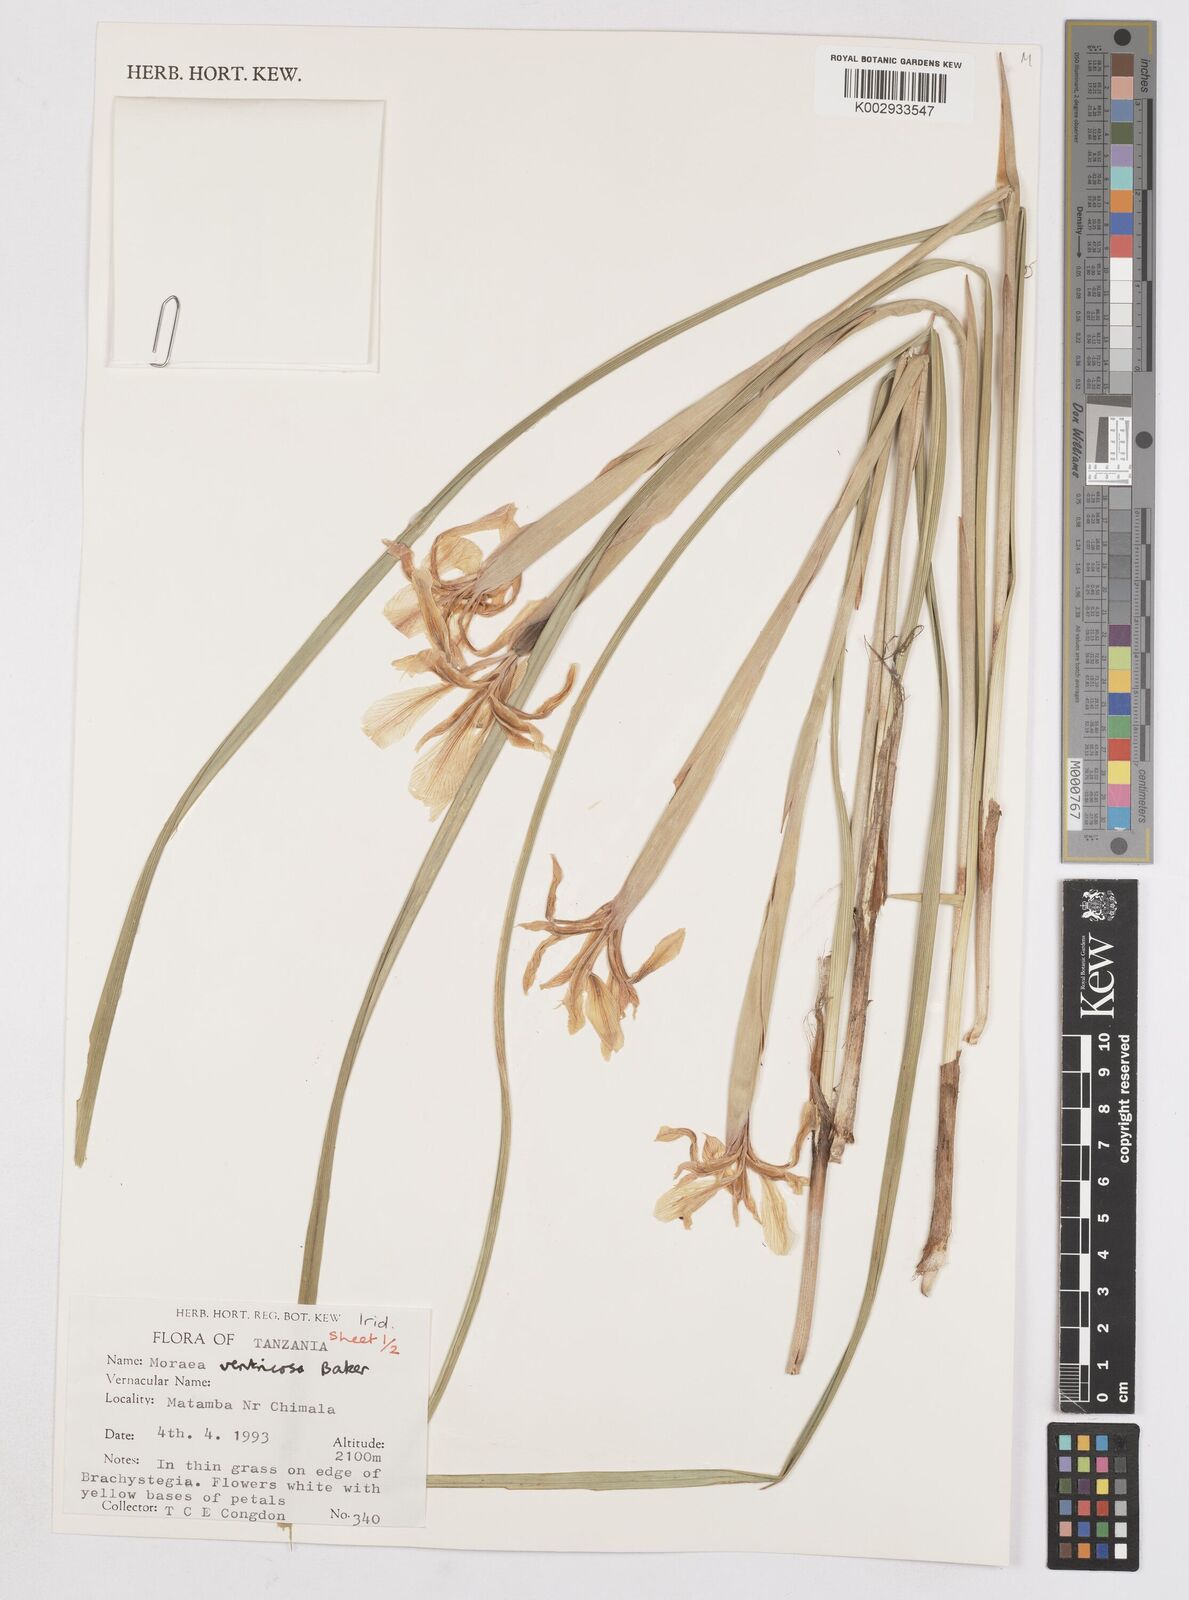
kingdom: Plantae
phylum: Tracheophyta
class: Liliopsida
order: Asparagales
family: Iridaceae
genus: Moraea
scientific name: Moraea ventricosa
